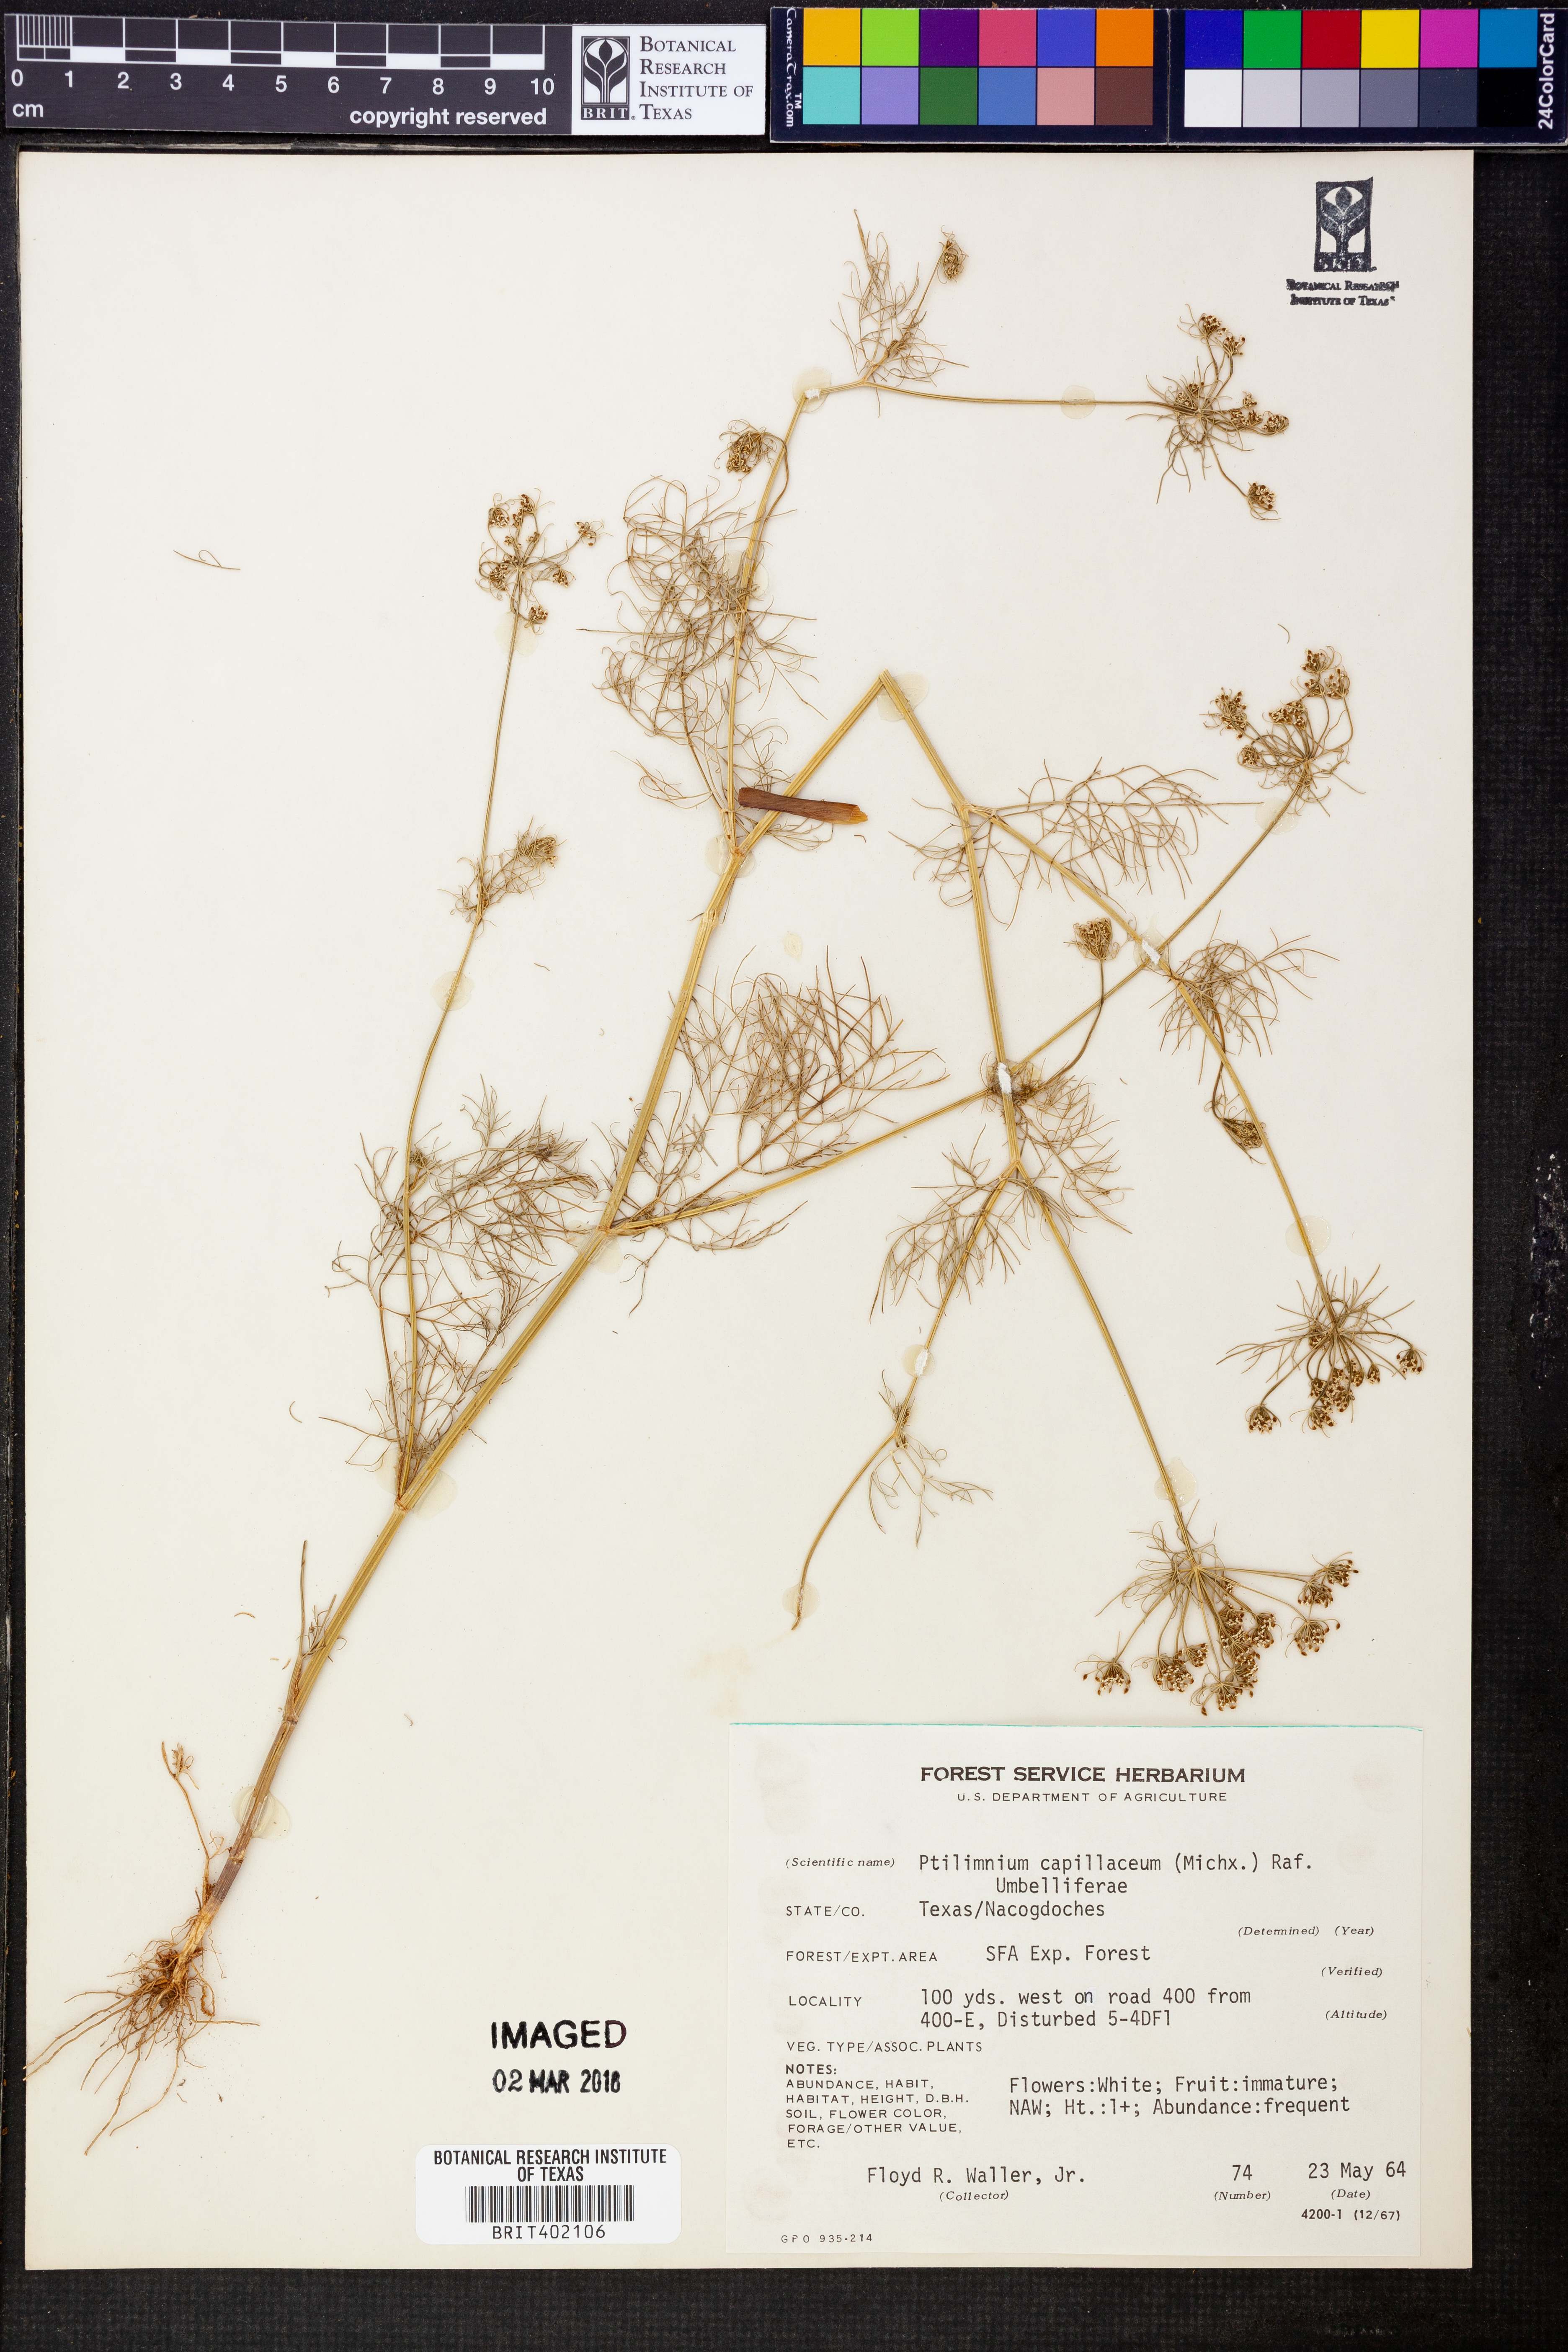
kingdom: Plantae
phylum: Tracheophyta
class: Magnoliopsida
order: Apiales
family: Apiaceae
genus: Ptilimnium
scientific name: Ptilimnium capillaceum
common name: Herbwilliam
